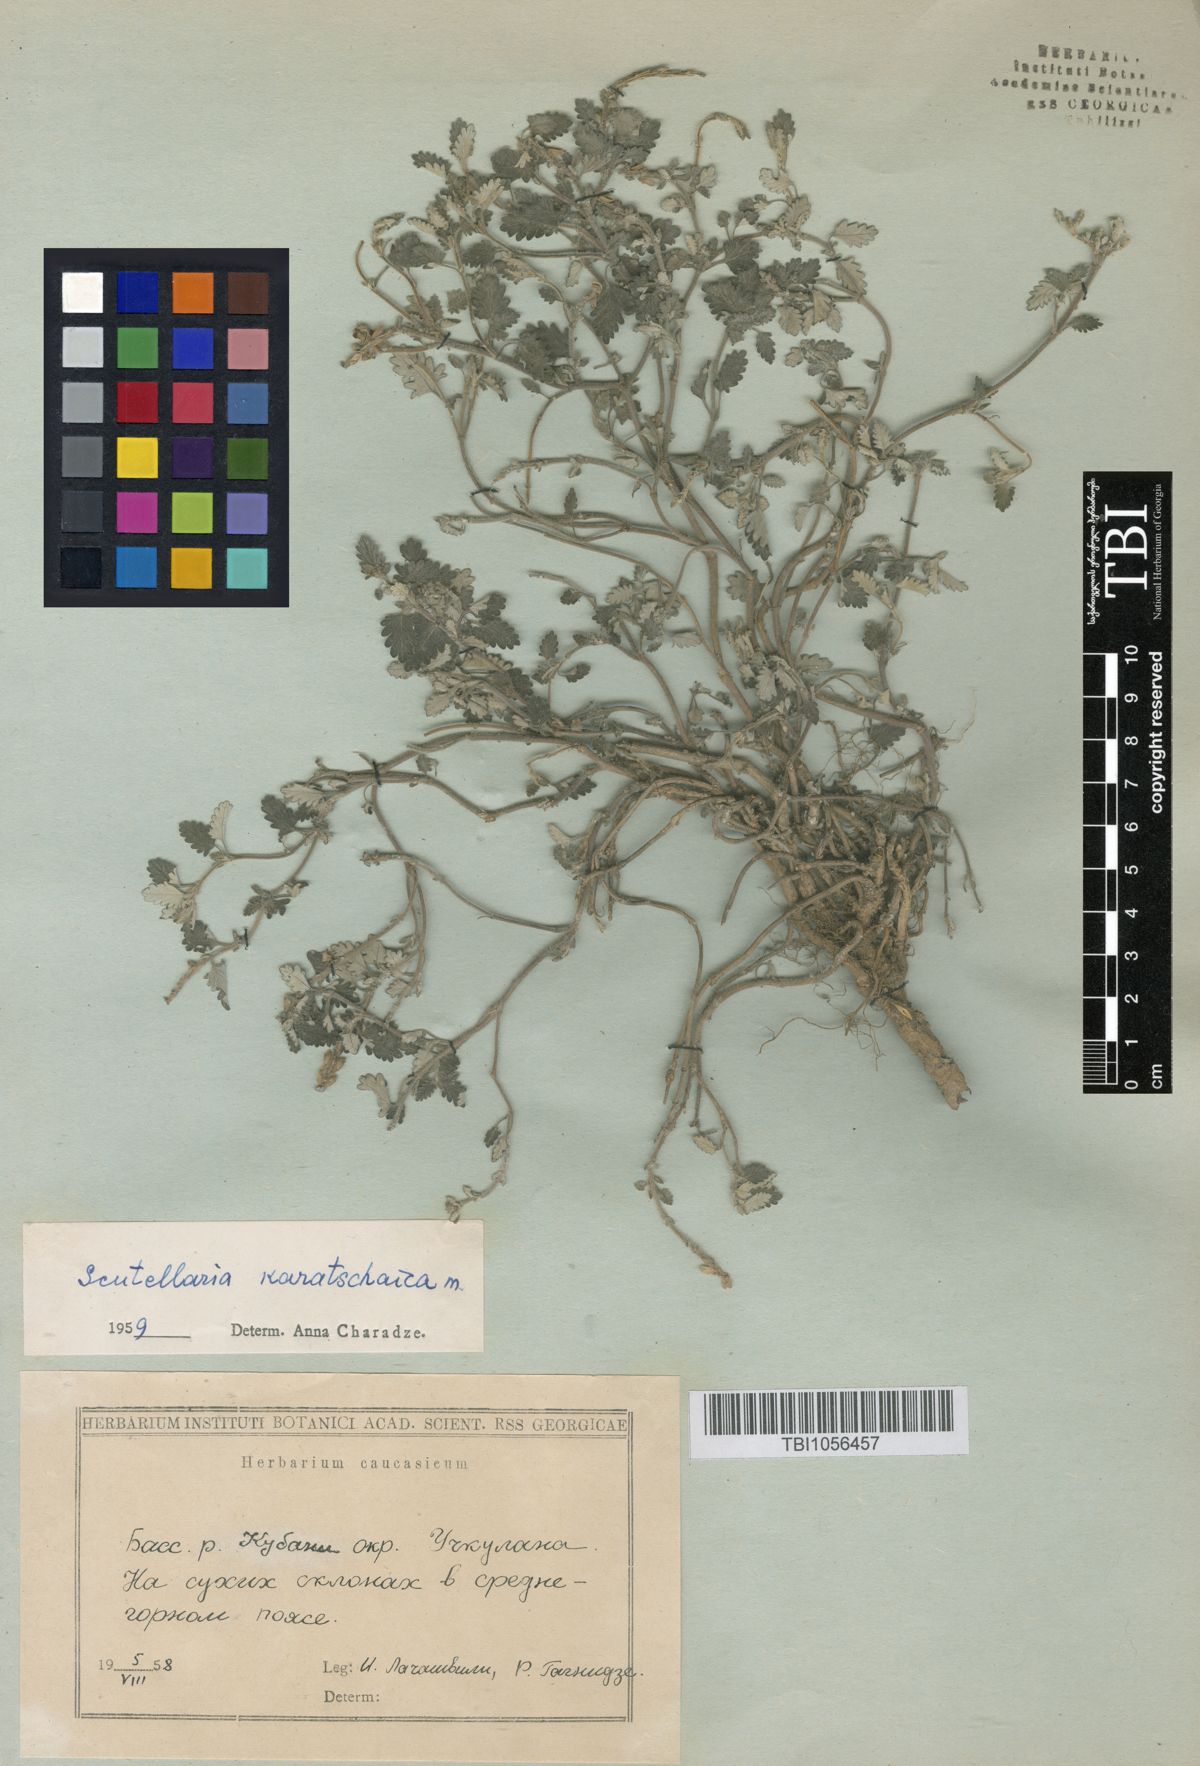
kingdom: Plantae
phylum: Tracheophyta
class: Magnoliopsida
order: Lamiales
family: Lamiaceae
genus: Scutellaria
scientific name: Scutellaria orientalis
